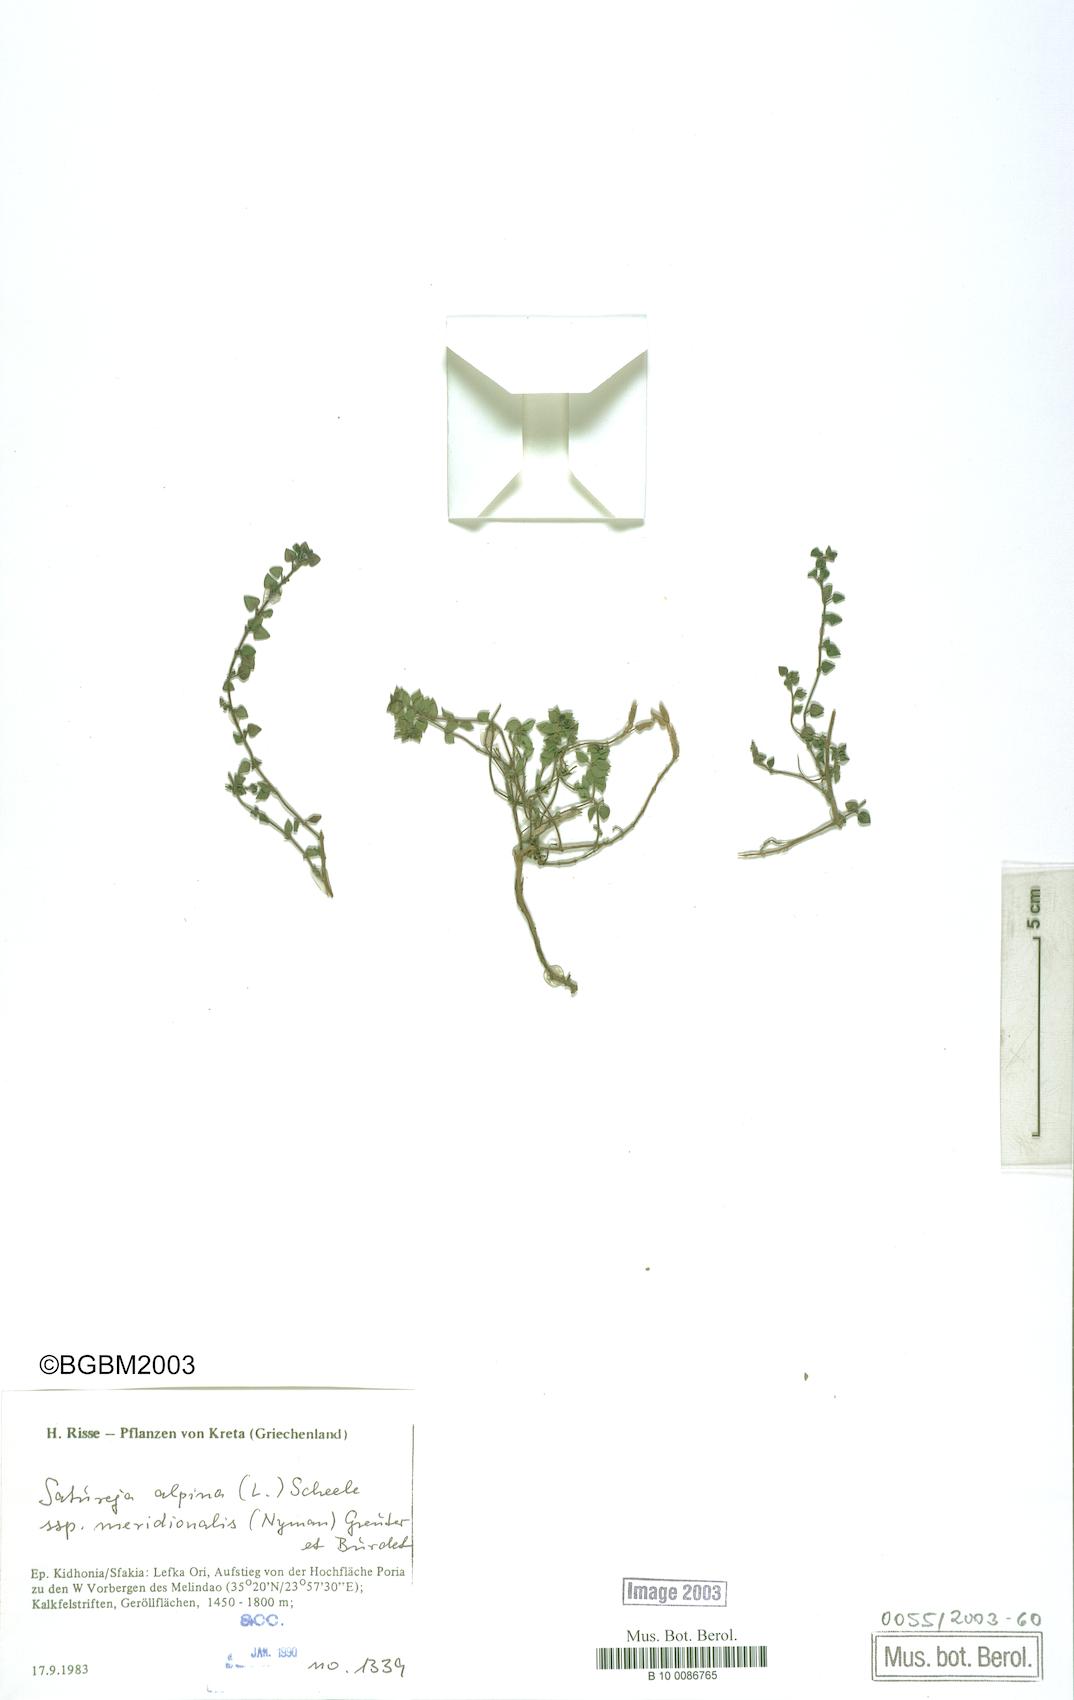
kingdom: Plantae
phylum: Tracheophyta
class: Magnoliopsida
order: Lamiales
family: Lamiaceae
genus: Clinopodium
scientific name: Clinopodium alpinum
